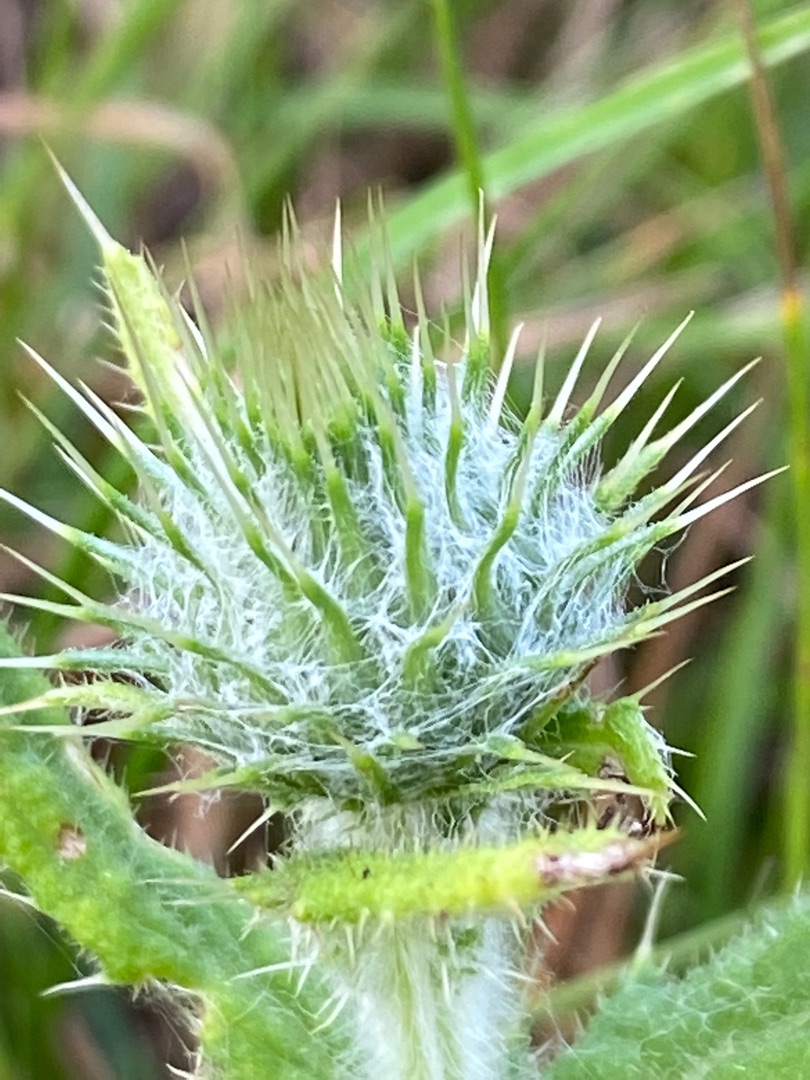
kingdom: Plantae
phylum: Tracheophyta
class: Magnoliopsida
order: Asterales
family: Asteraceae
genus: Cirsium
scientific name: Cirsium vulgare
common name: Horse-tidsel
